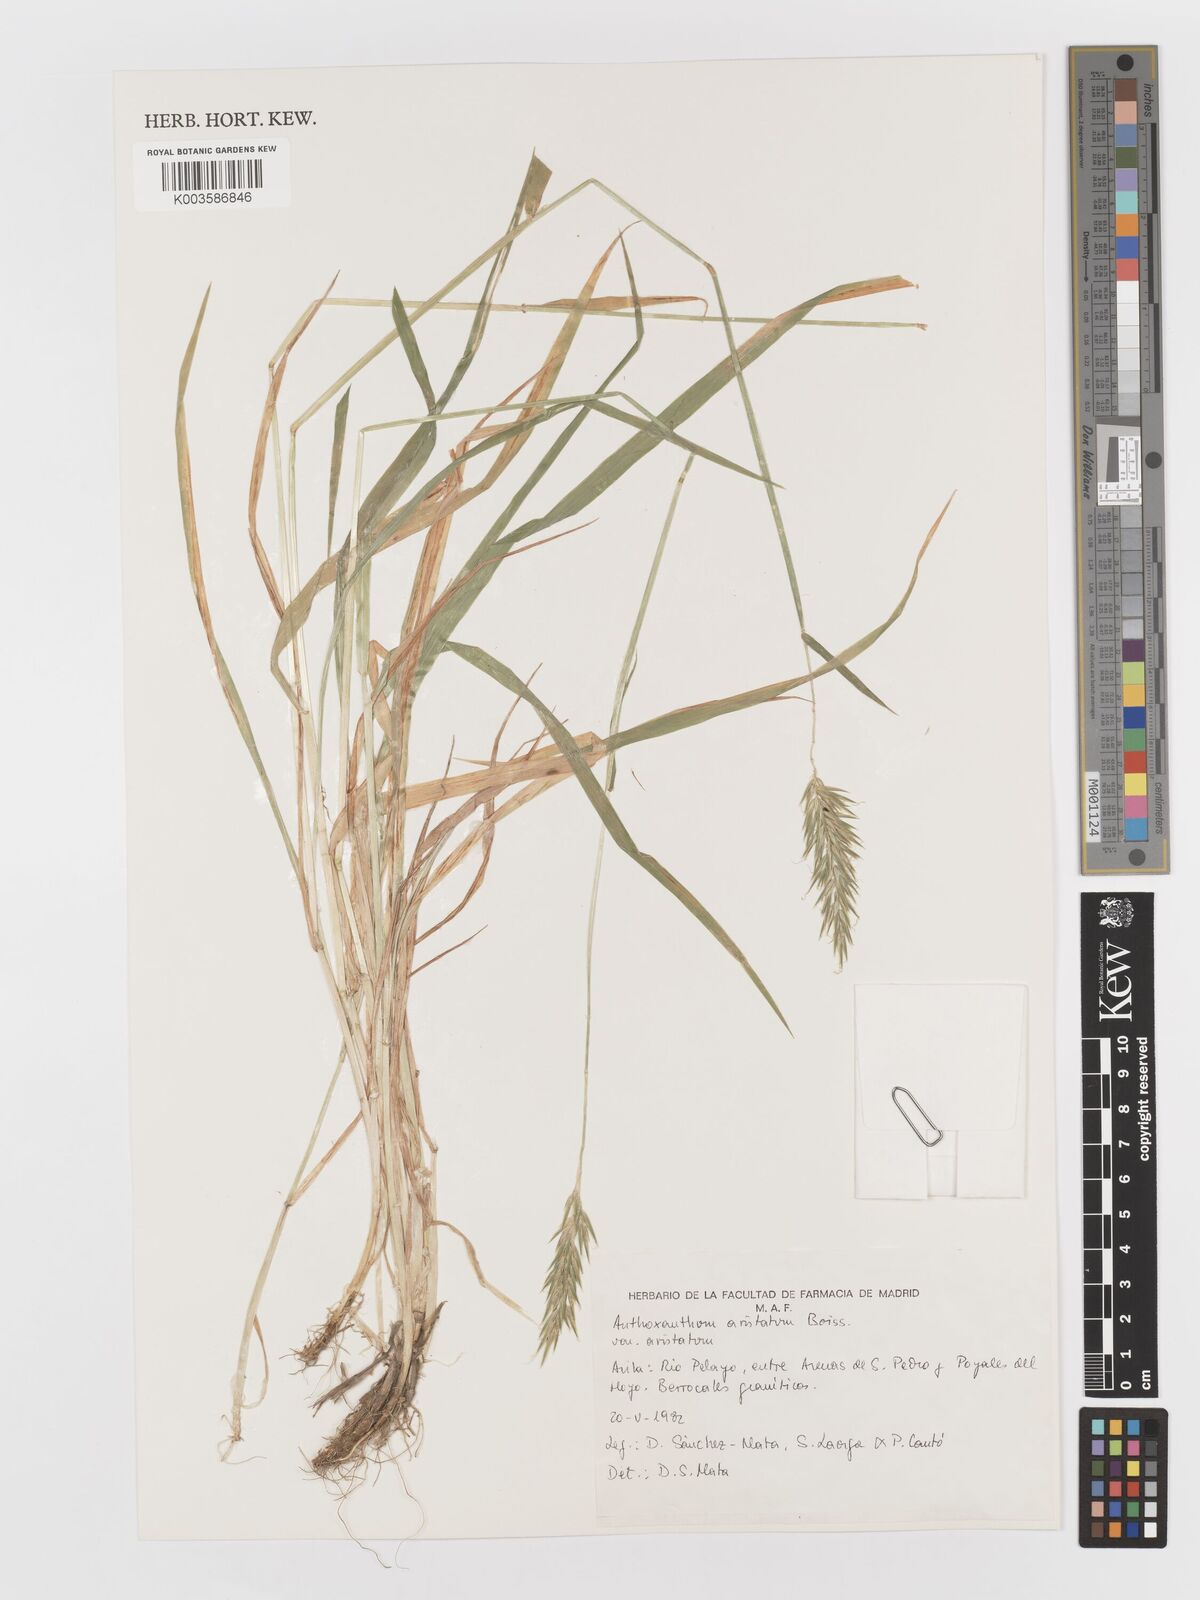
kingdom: Plantae
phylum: Tracheophyta
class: Liliopsida
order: Poales
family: Poaceae
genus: Anthoxanthum
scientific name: Anthoxanthum
